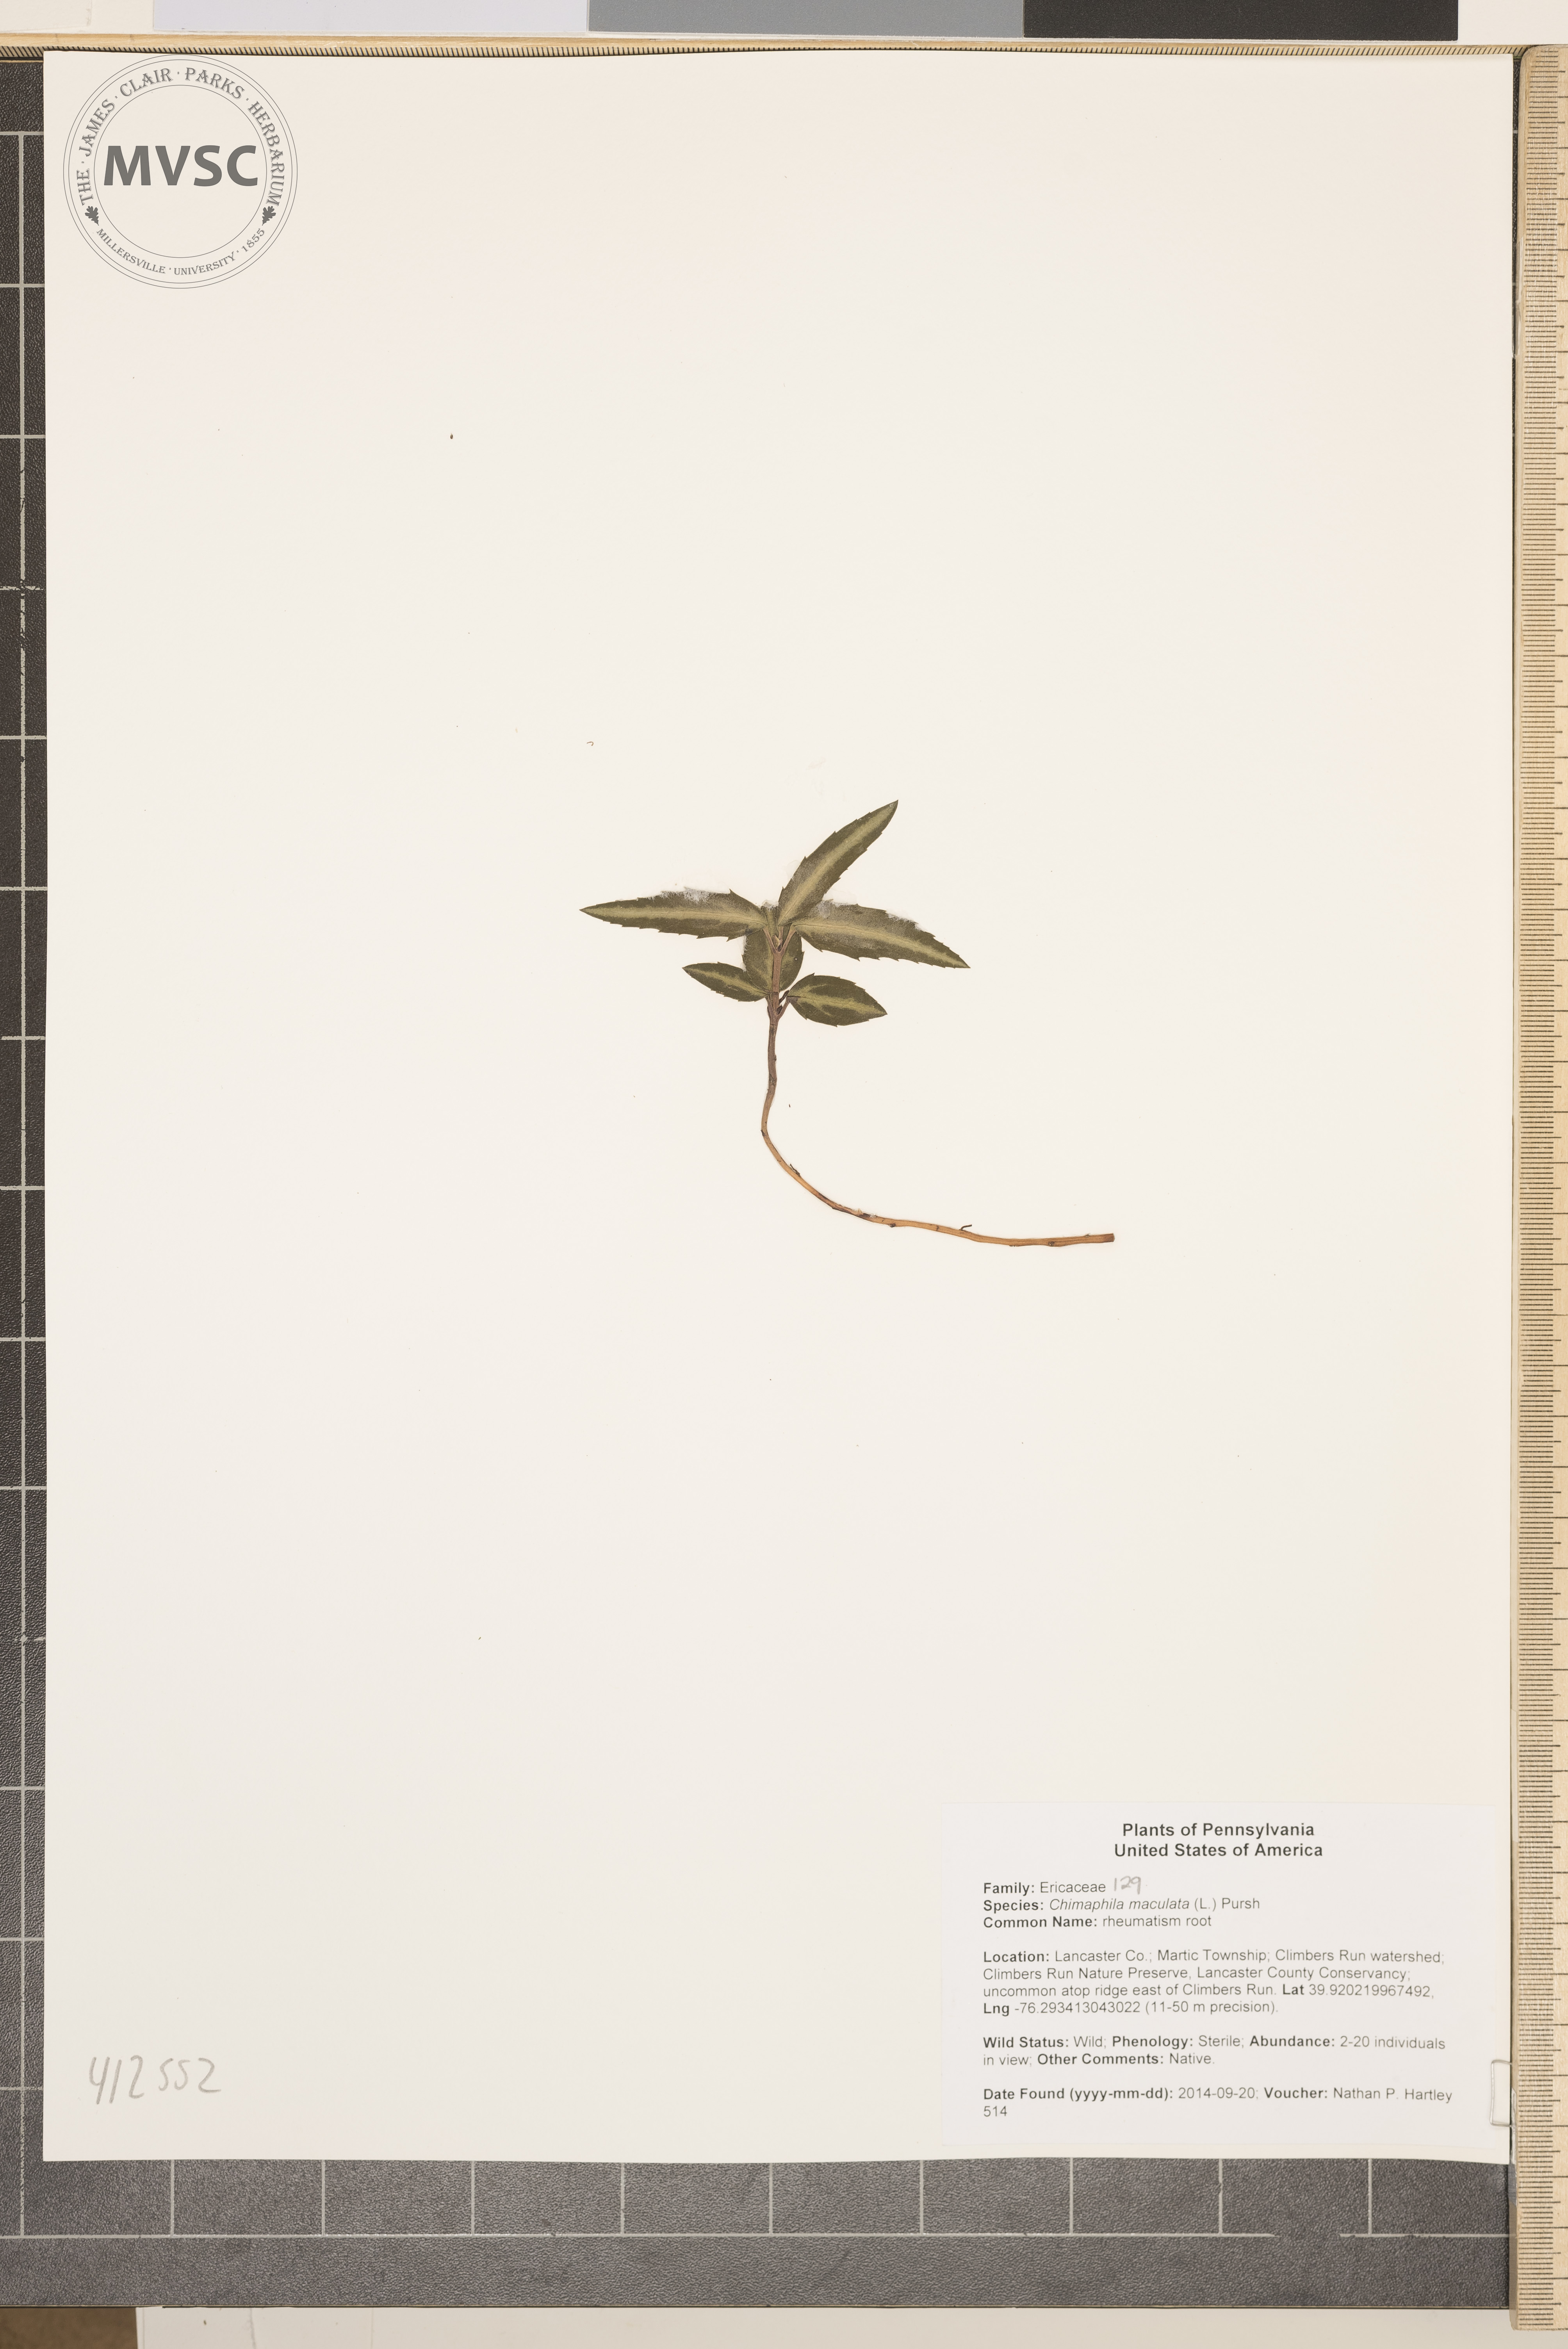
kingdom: Plantae
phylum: Tracheophyta
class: Magnoliopsida
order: Ericales
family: Ericaceae
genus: Chimaphila
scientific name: Chimaphila maculata
